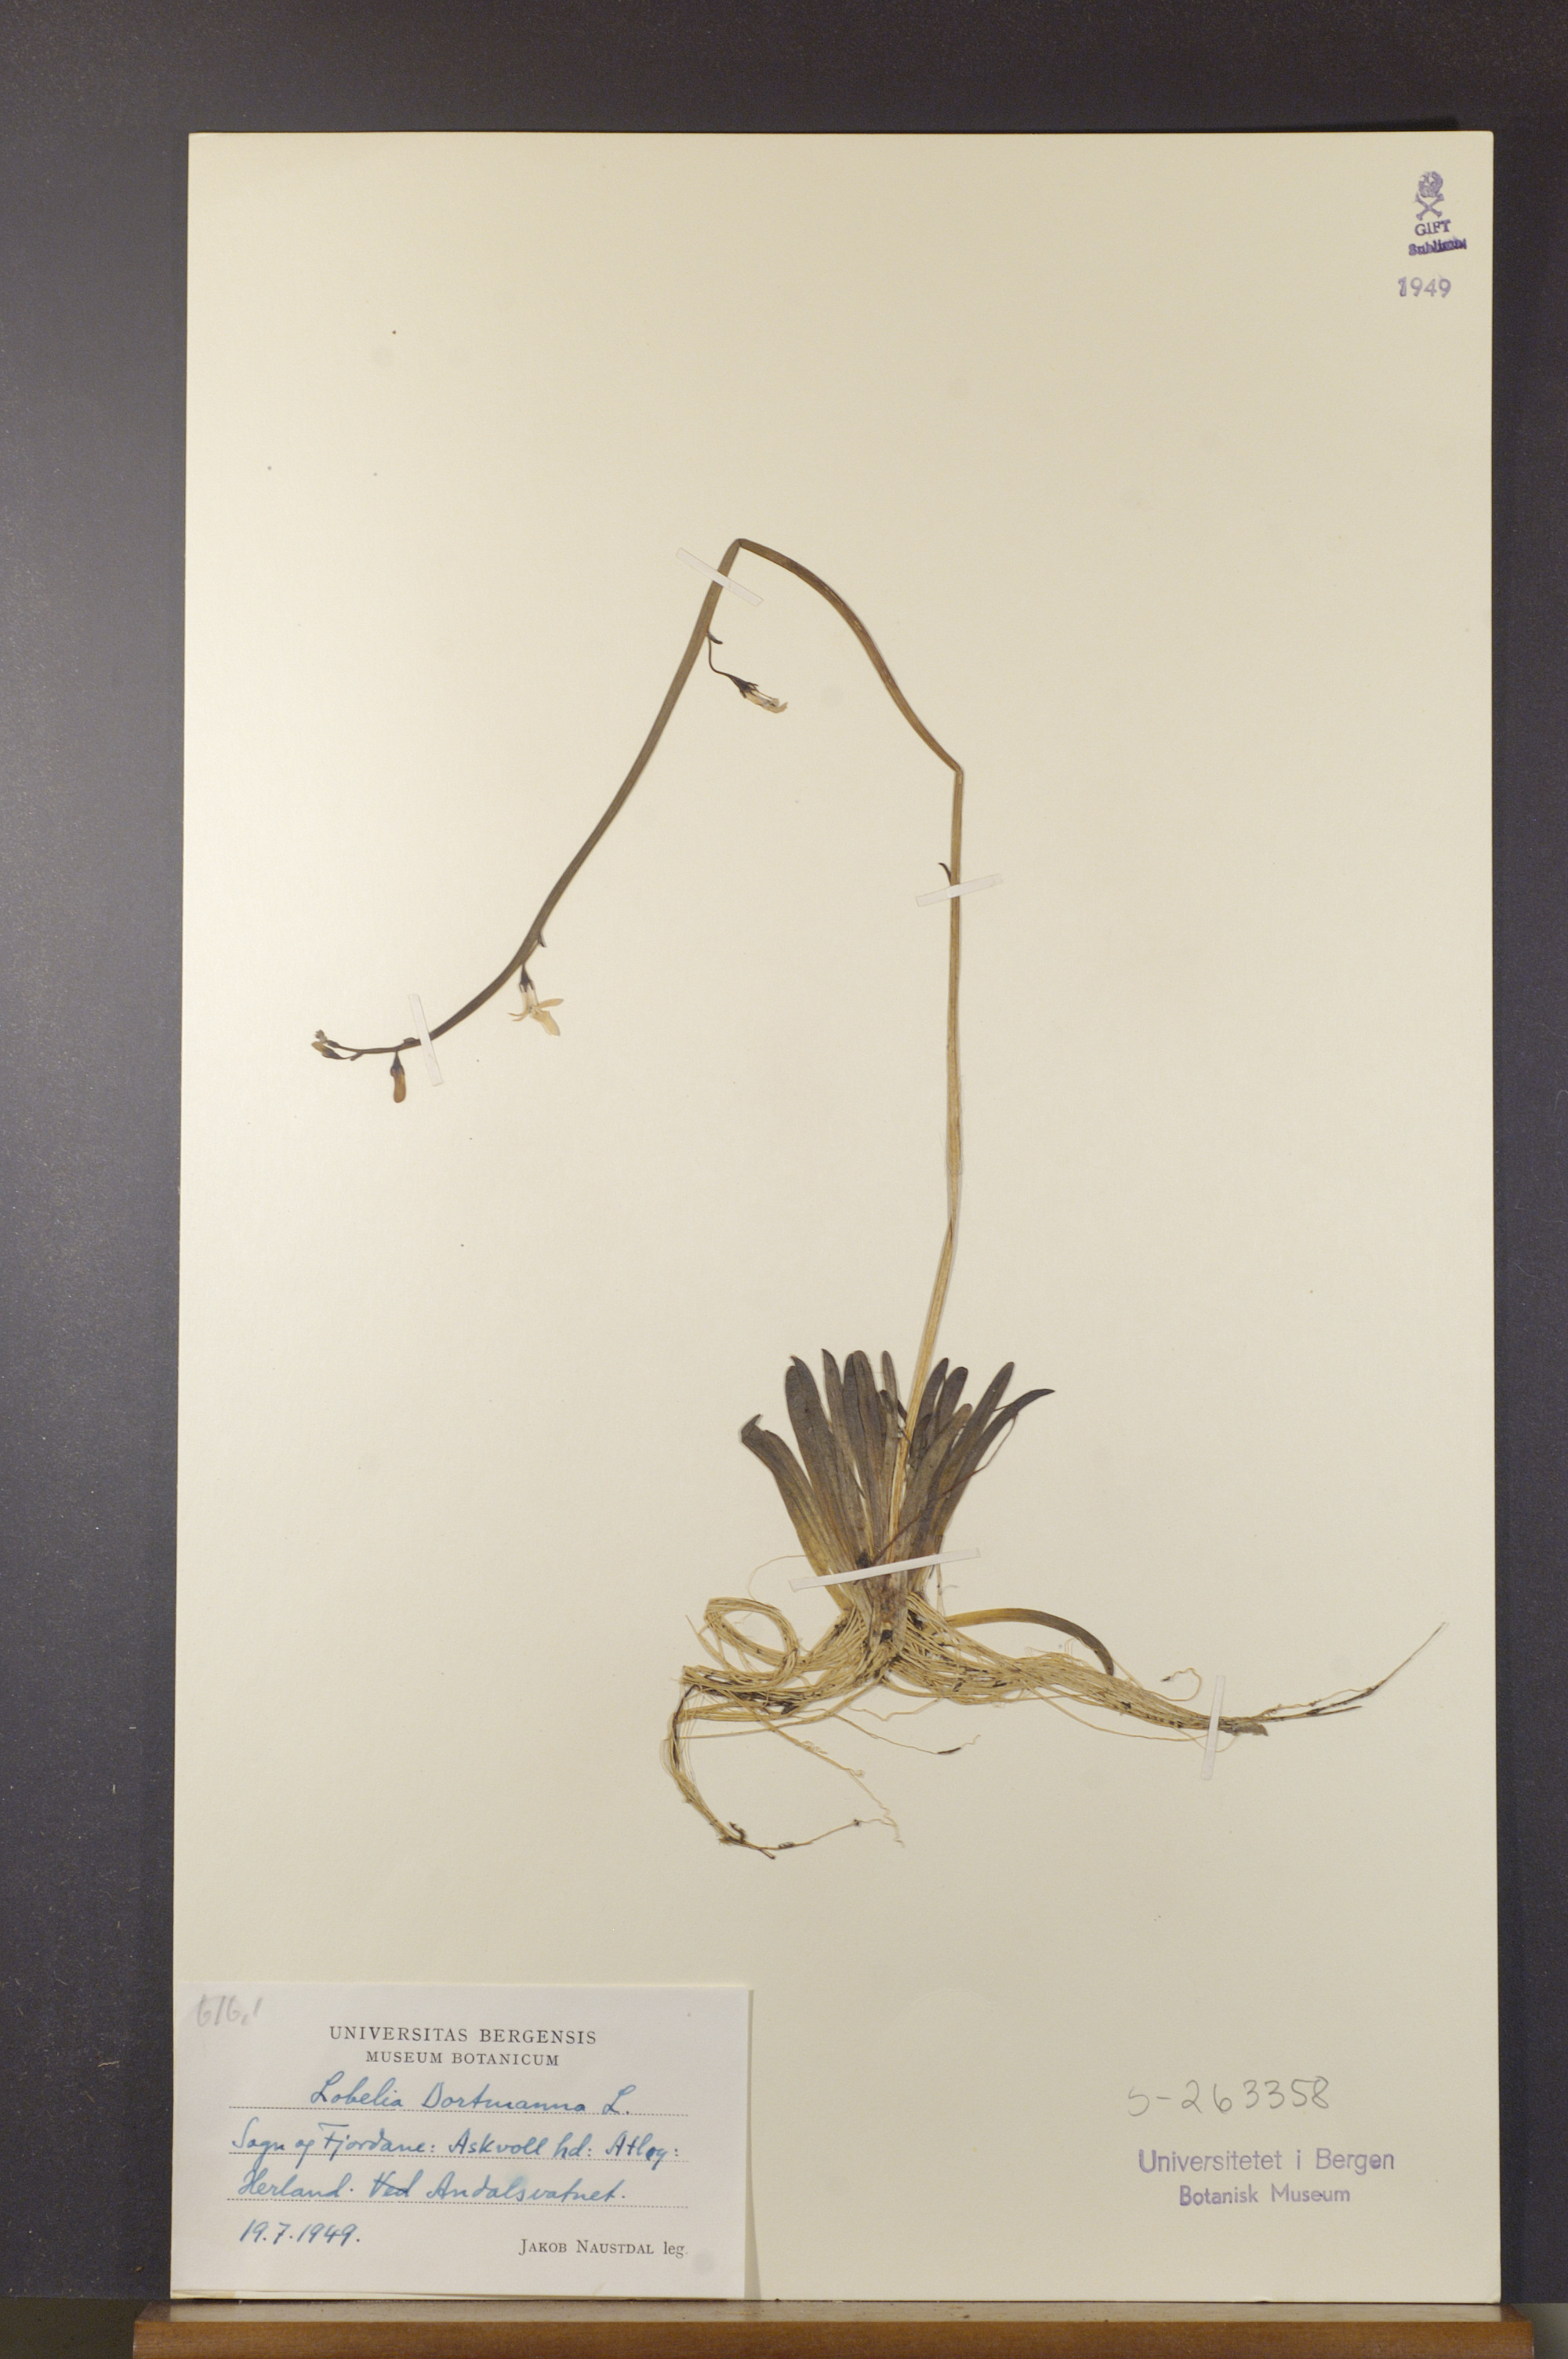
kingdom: Plantae
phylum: Tracheophyta
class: Magnoliopsida
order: Asterales
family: Campanulaceae
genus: Lobelia
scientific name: Lobelia dortmanna
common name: Water lobelia
